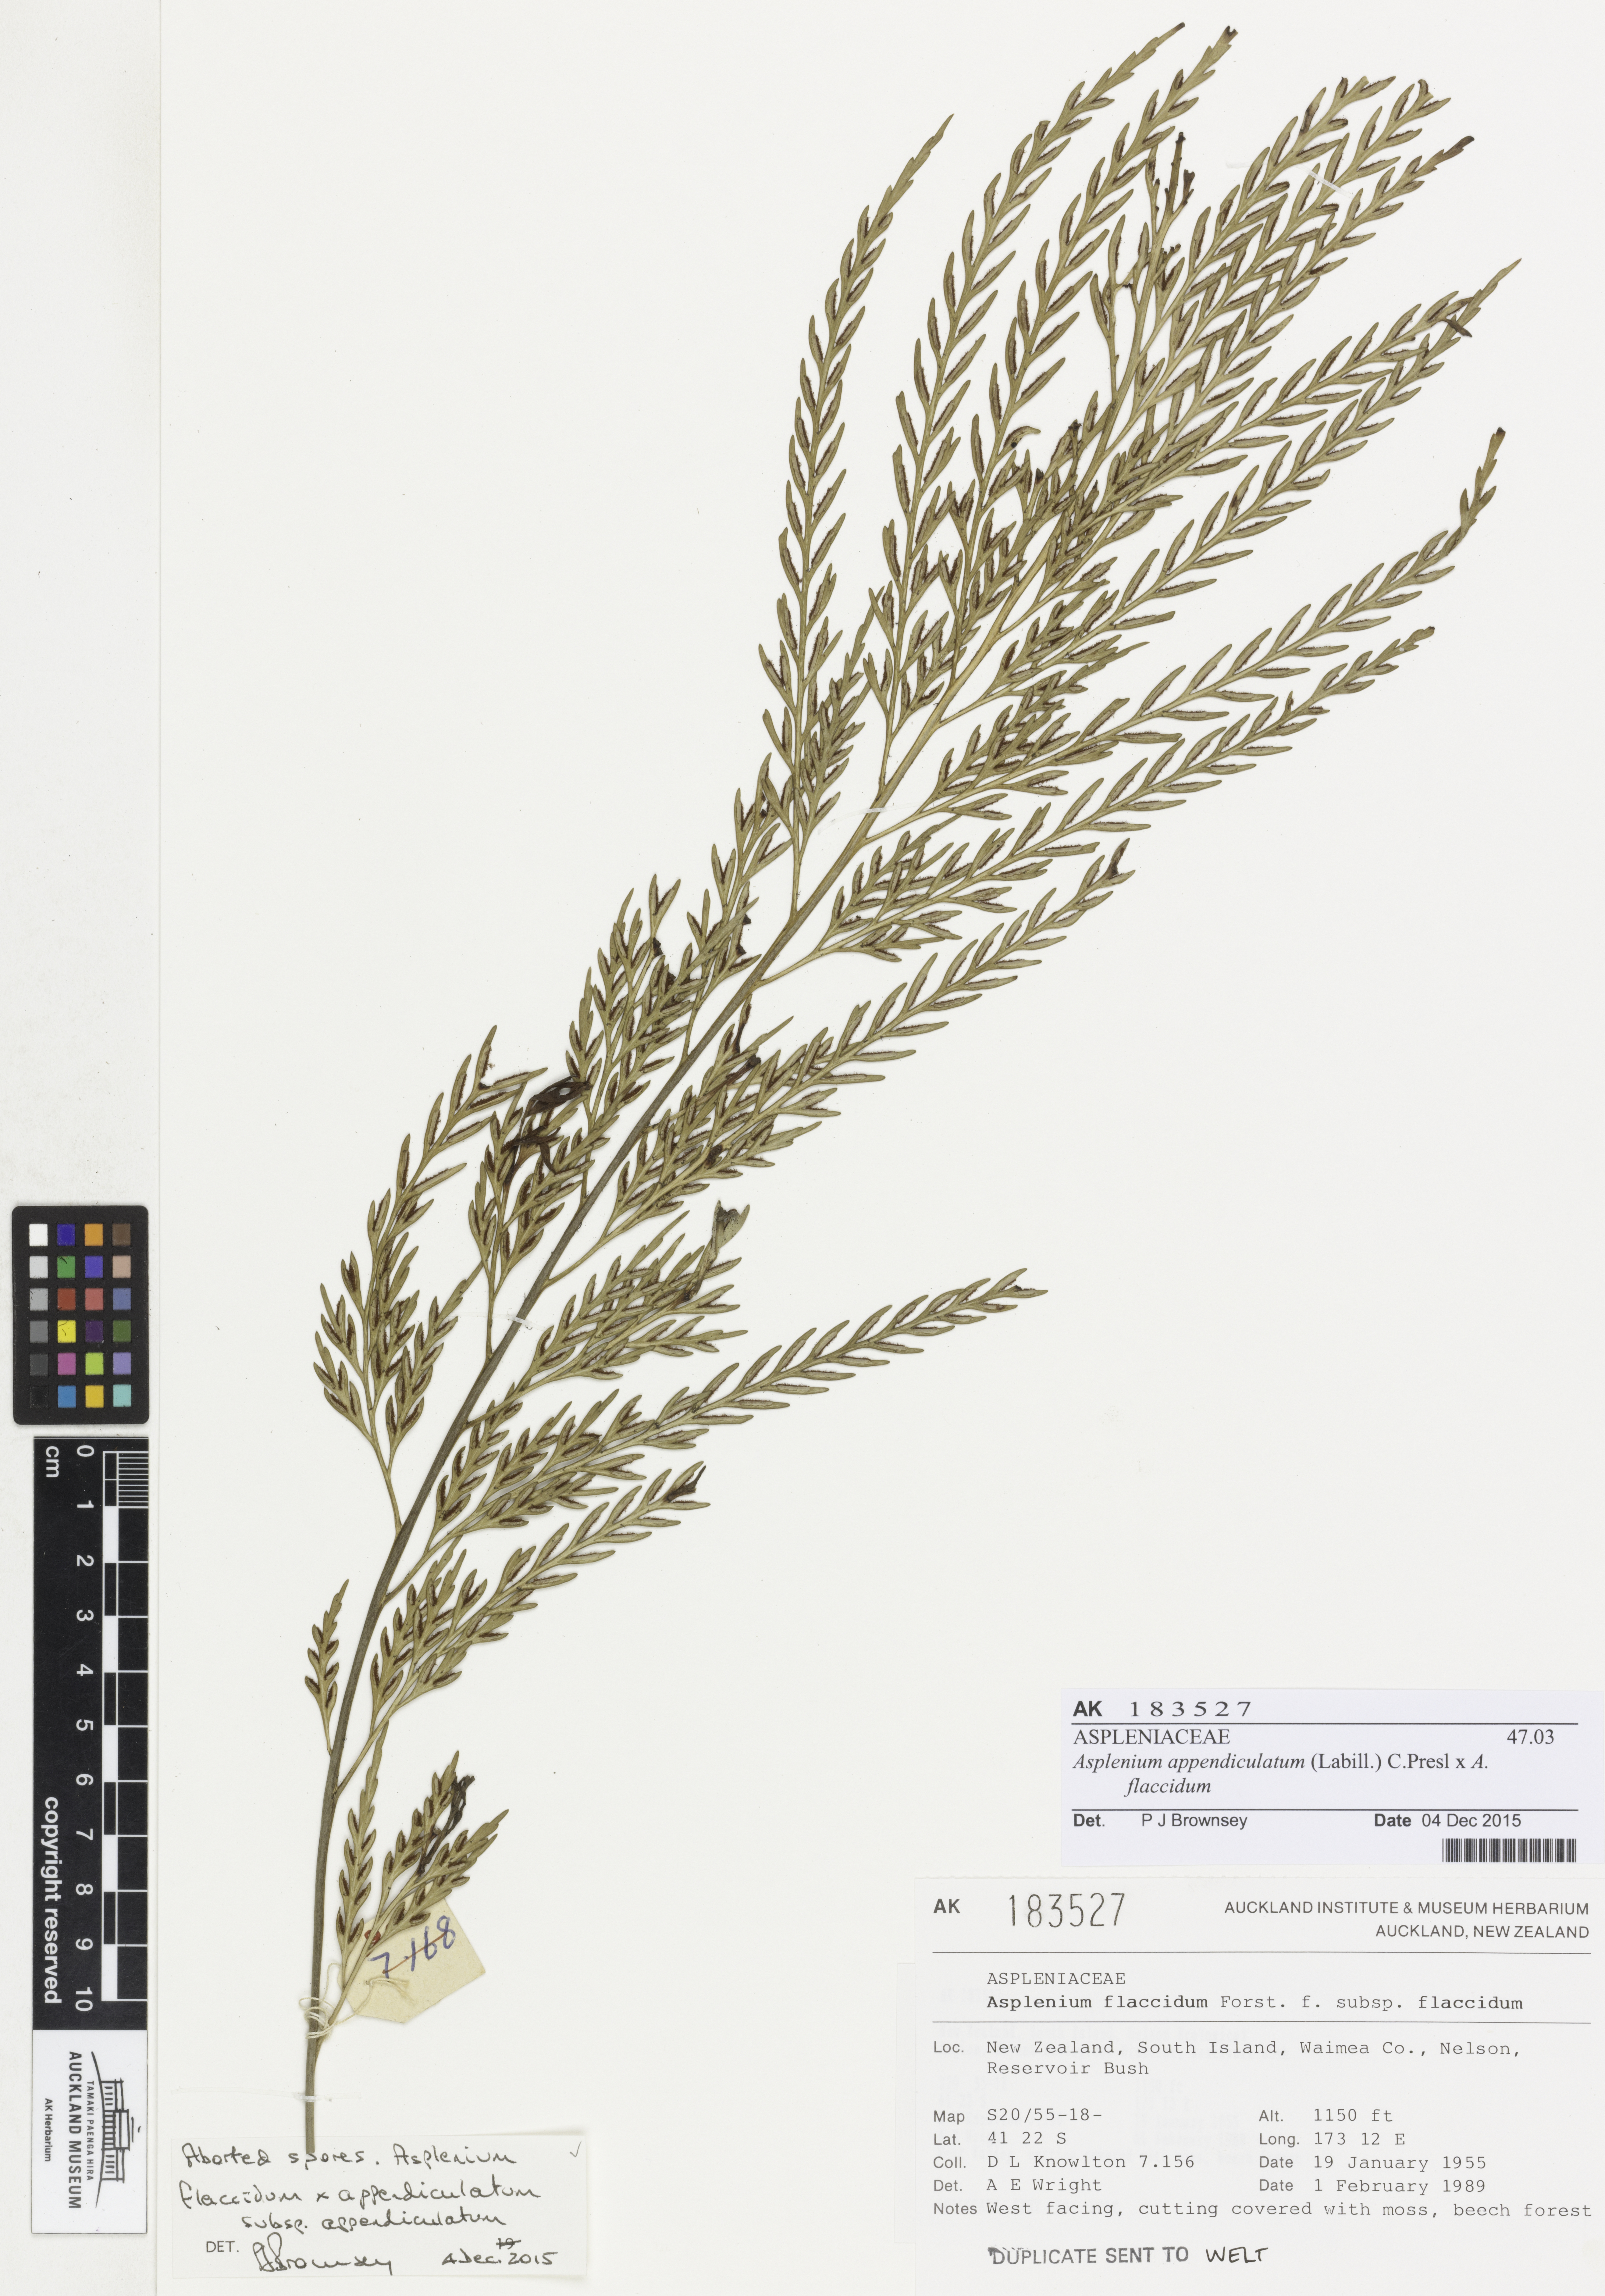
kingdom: Plantae
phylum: Tracheophyta
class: Polypodiopsida
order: Polypodiales
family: Aspleniaceae
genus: Asplenium
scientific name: Asplenium
